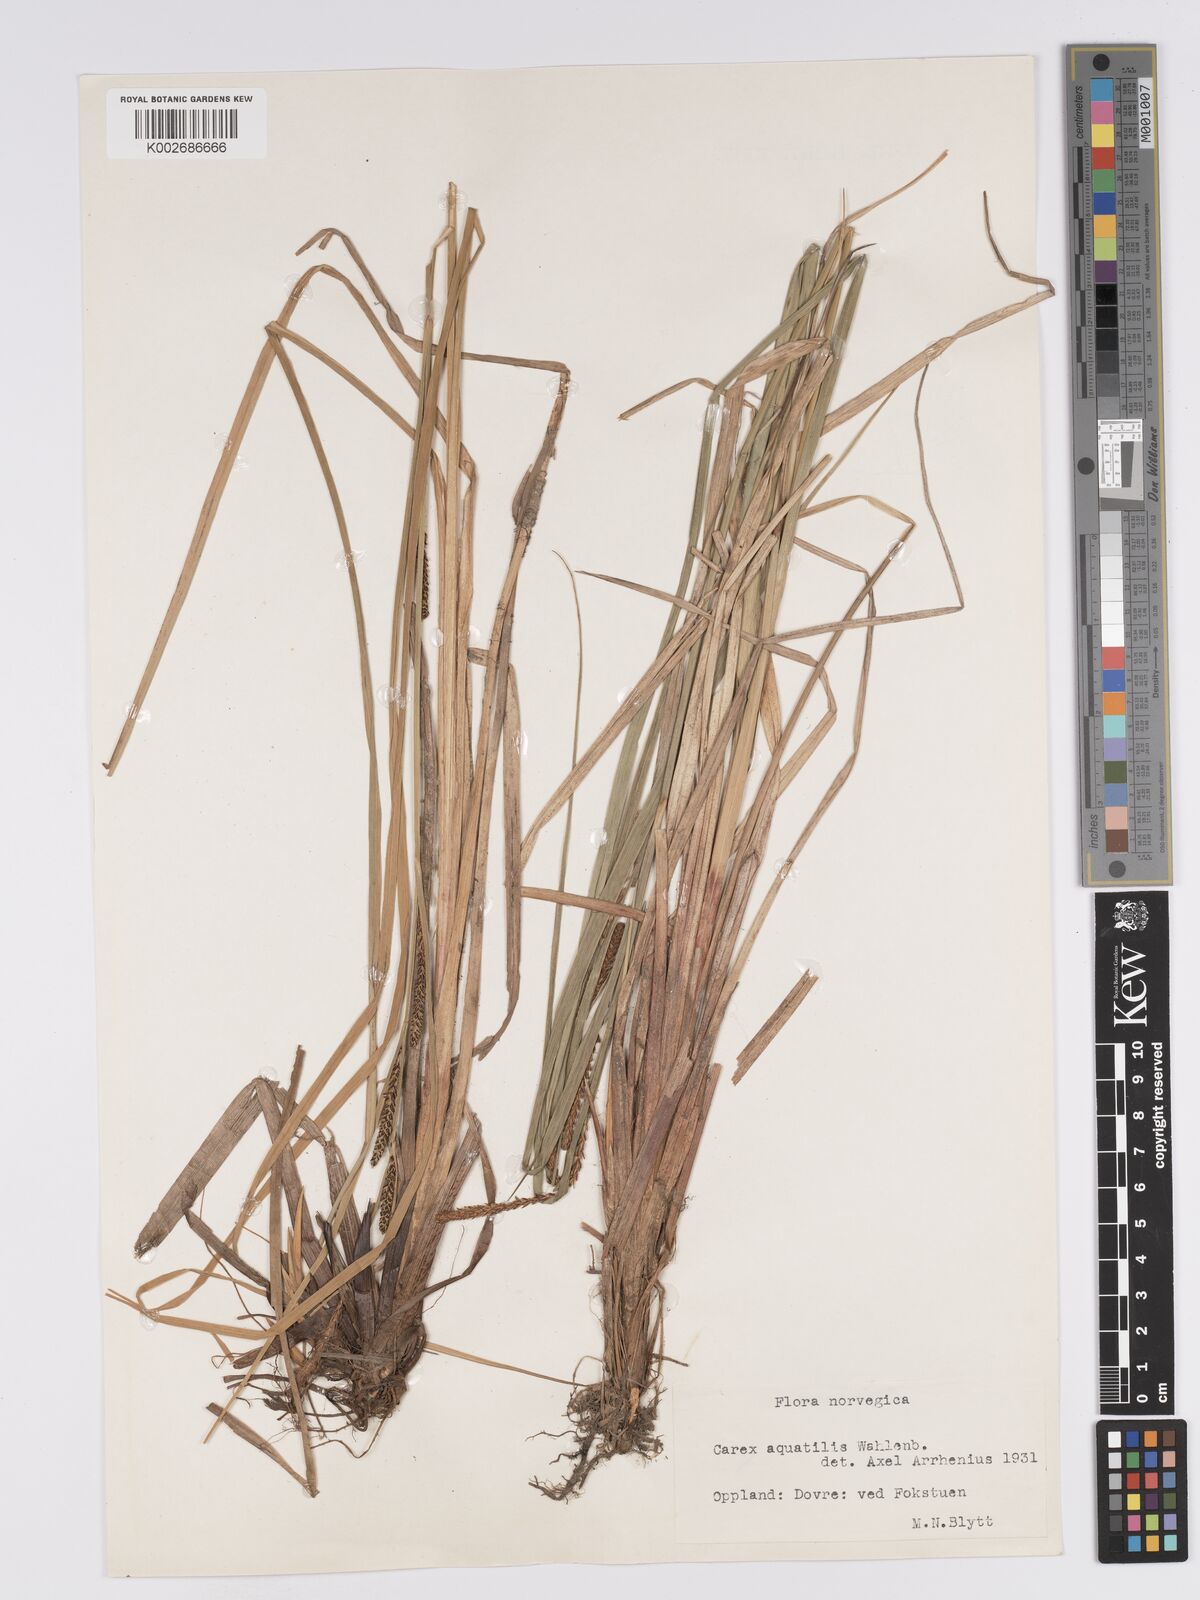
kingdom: Plantae
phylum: Tracheophyta
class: Liliopsida
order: Poales
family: Cyperaceae
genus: Carex
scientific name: Carex aquatilis
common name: Water sedge
